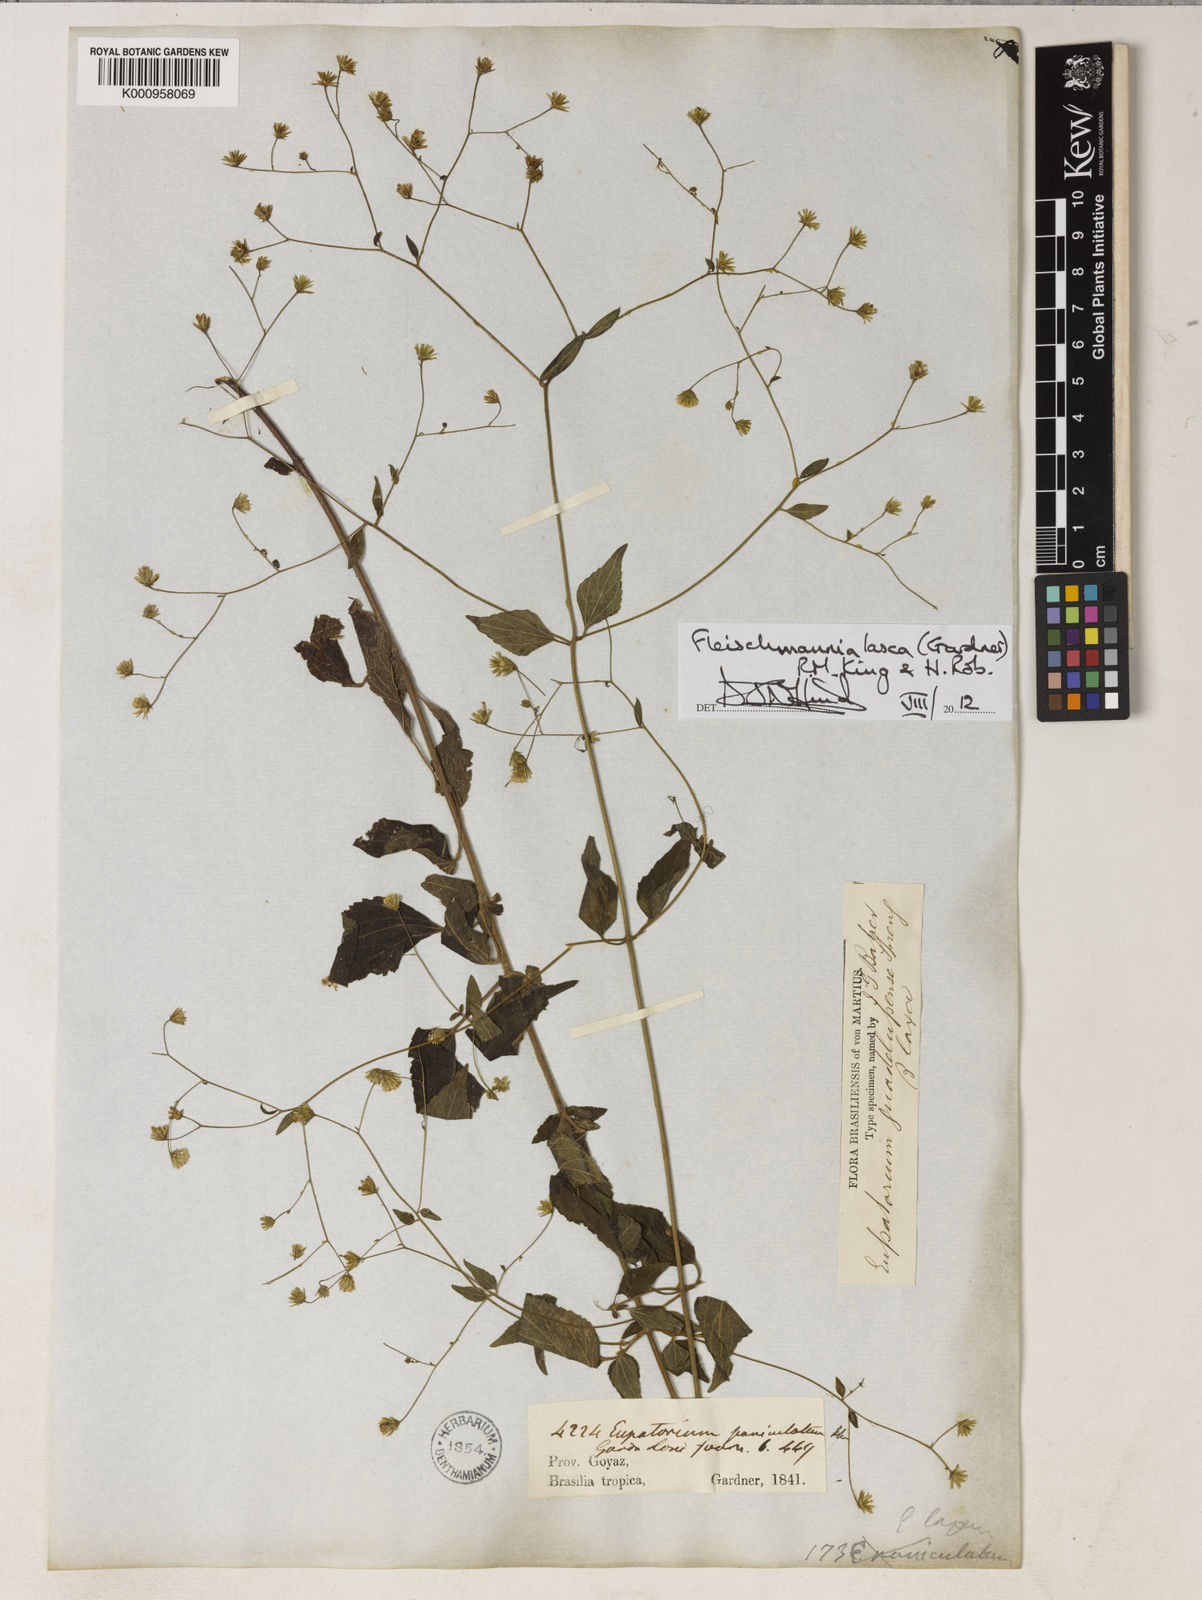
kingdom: Plantae
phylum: Tracheophyta
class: Magnoliopsida
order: Asterales
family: Asteraceae
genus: Fleischmannia
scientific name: Fleischmannia laxa
